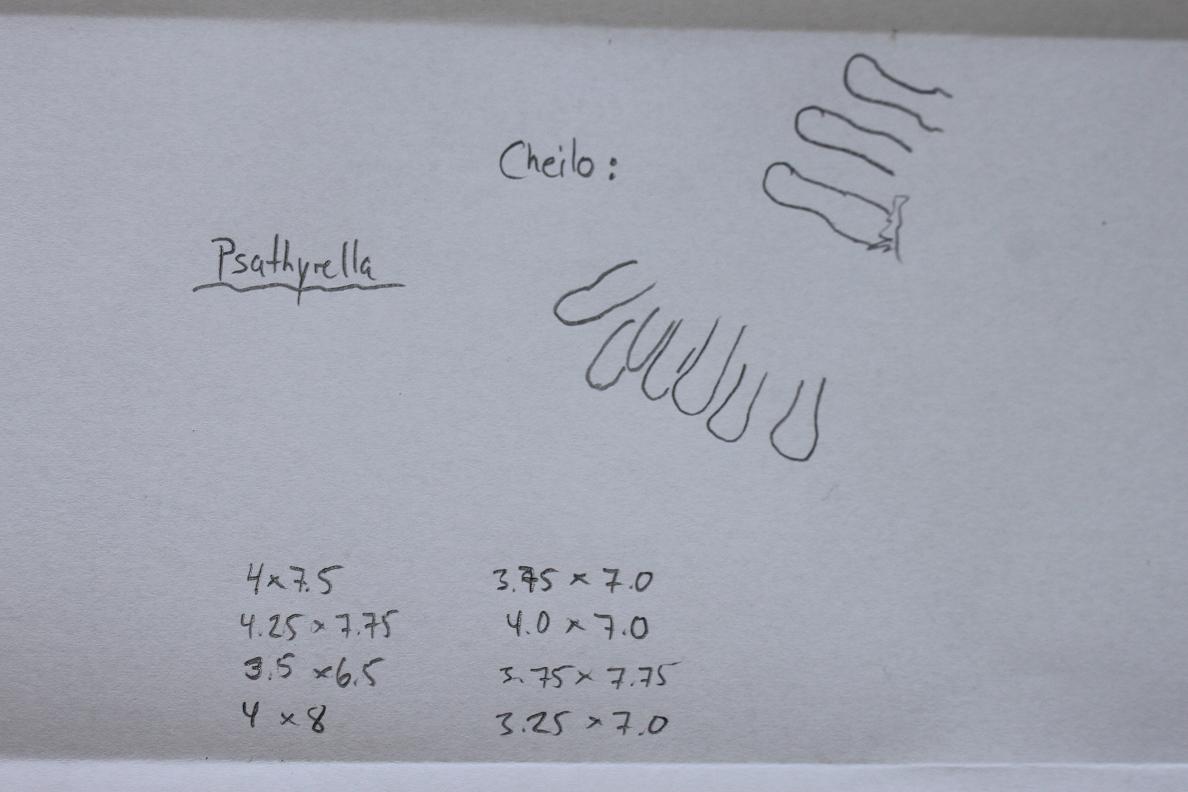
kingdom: Fungi
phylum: Basidiomycota
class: Agaricomycetes
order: Agaricales
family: Psathyrellaceae
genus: Candolleomyces
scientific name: Candolleomyces candolleanus
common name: Candolles mørkhat
